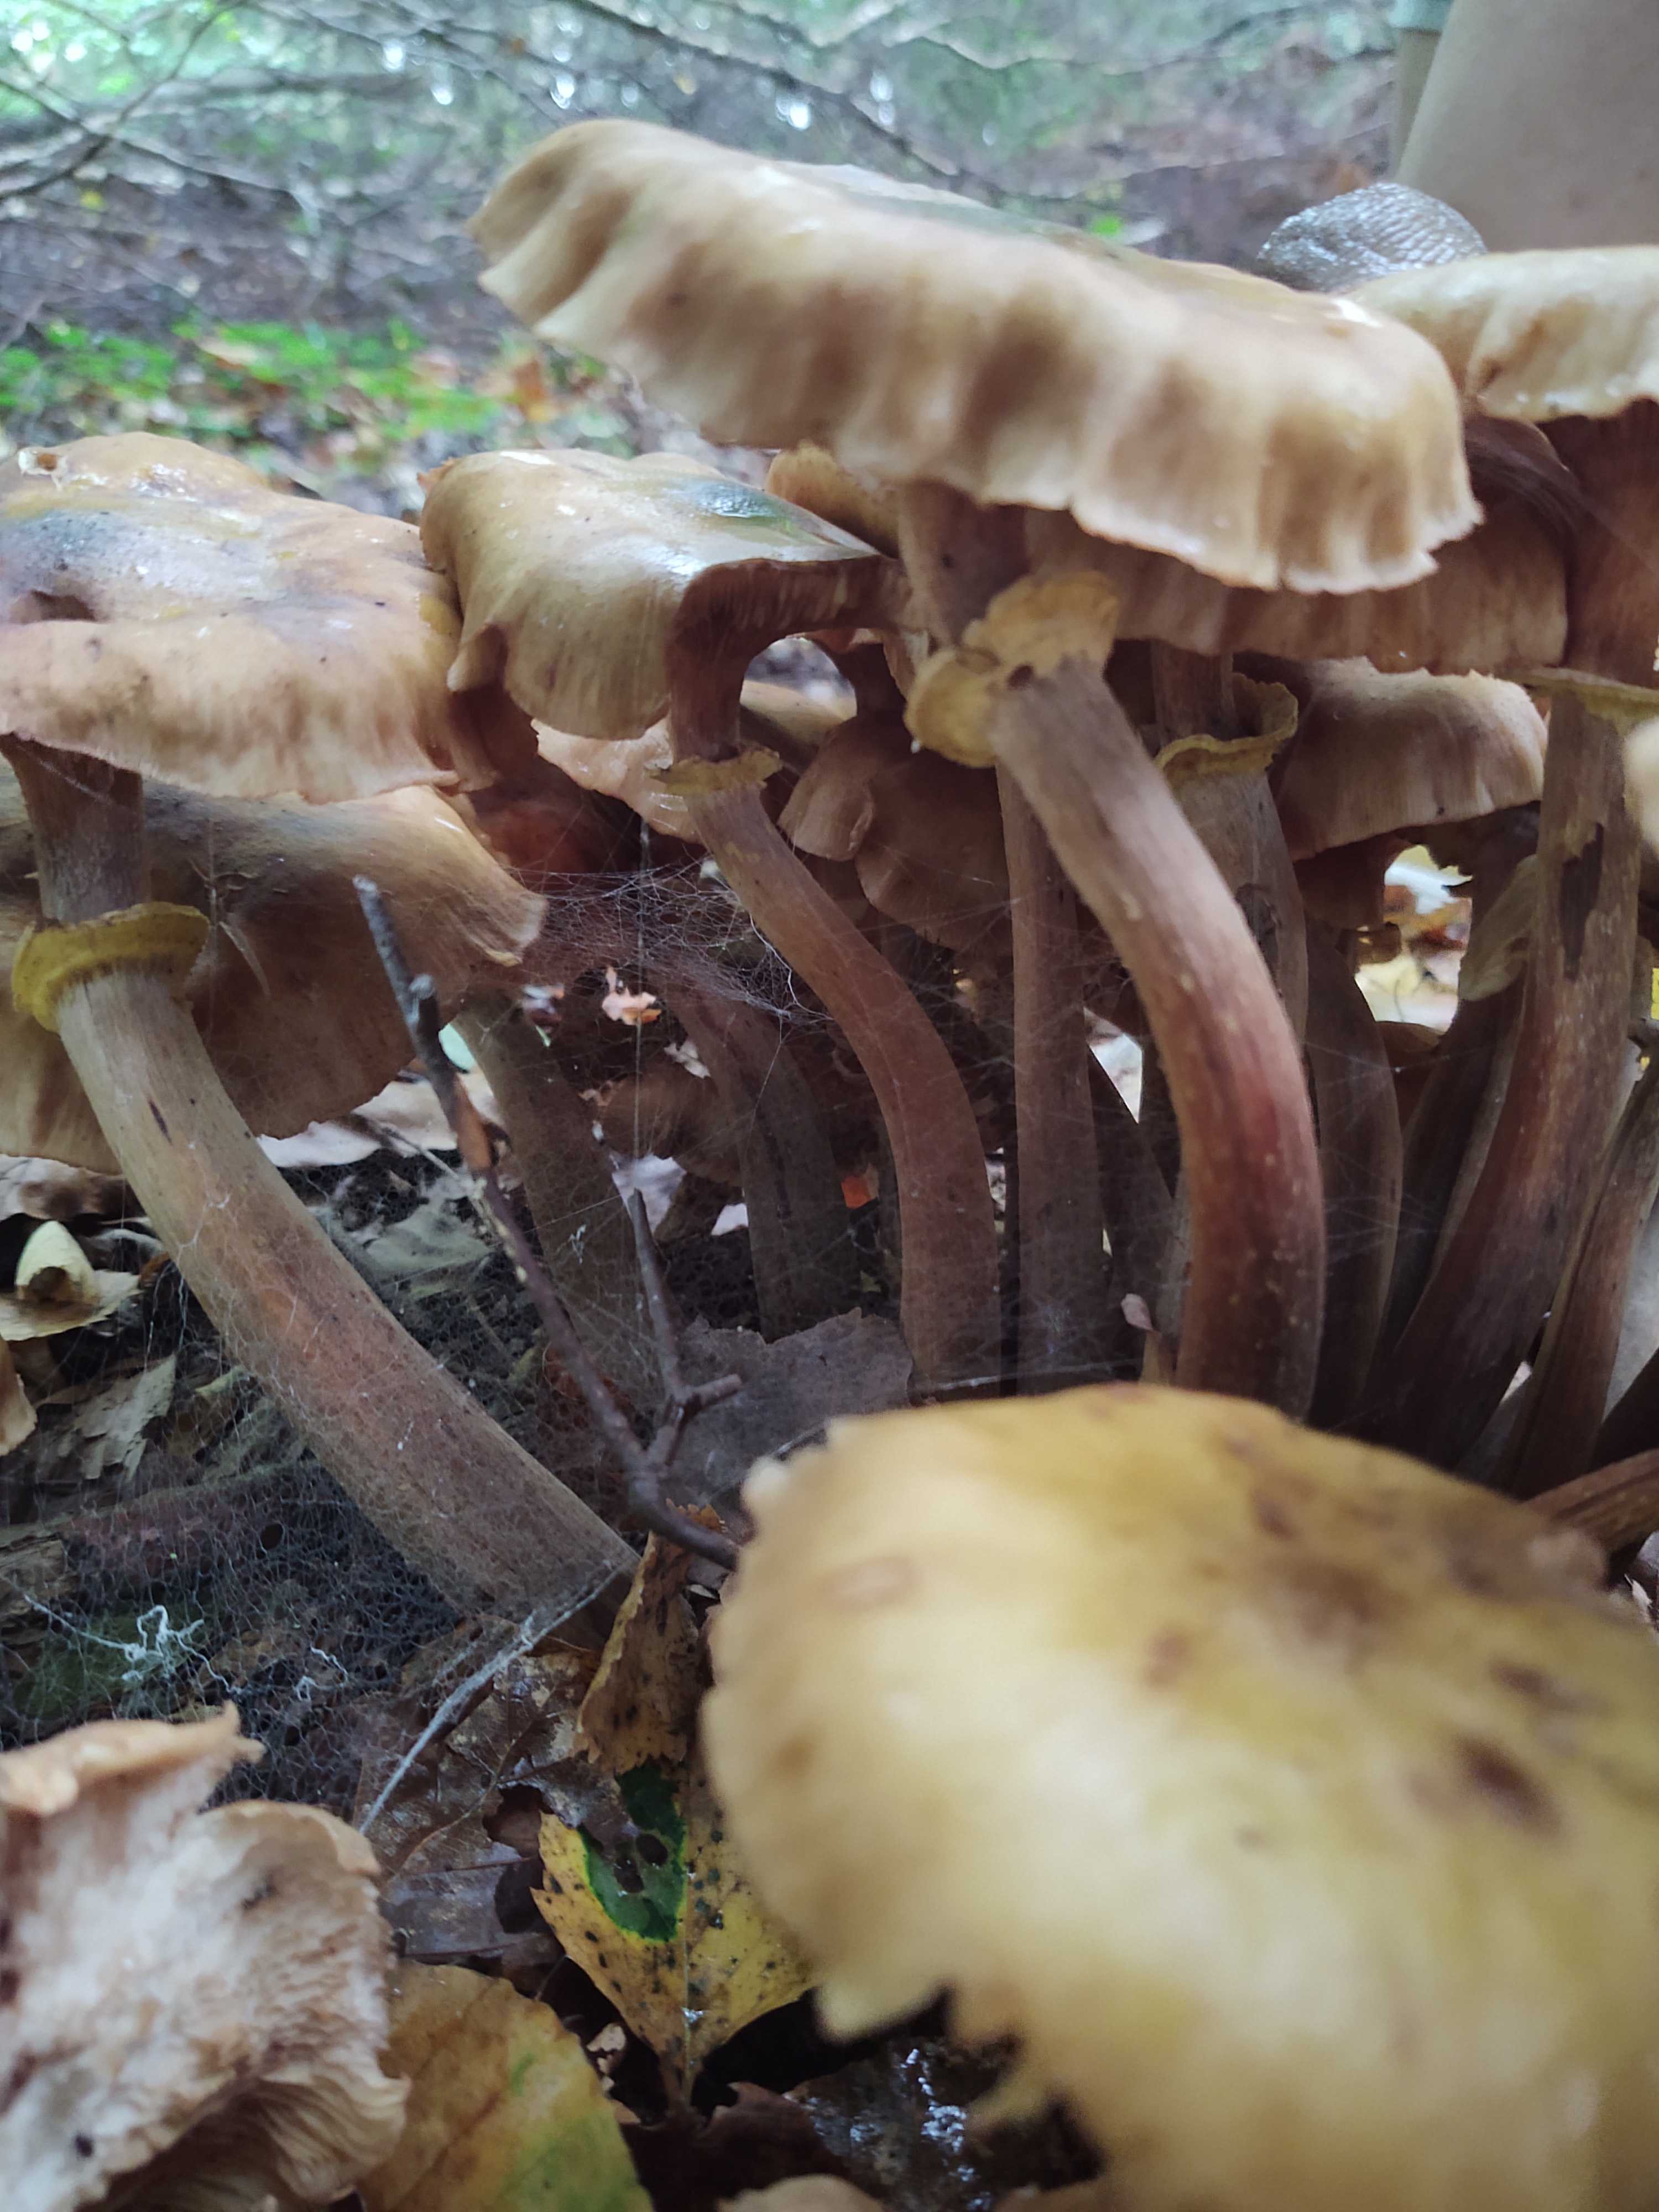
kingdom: Fungi
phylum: Basidiomycota
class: Agaricomycetes
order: Agaricales
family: Physalacriaceae
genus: Armillaria
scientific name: Armillaria mellea
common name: ægte honningsvamp
